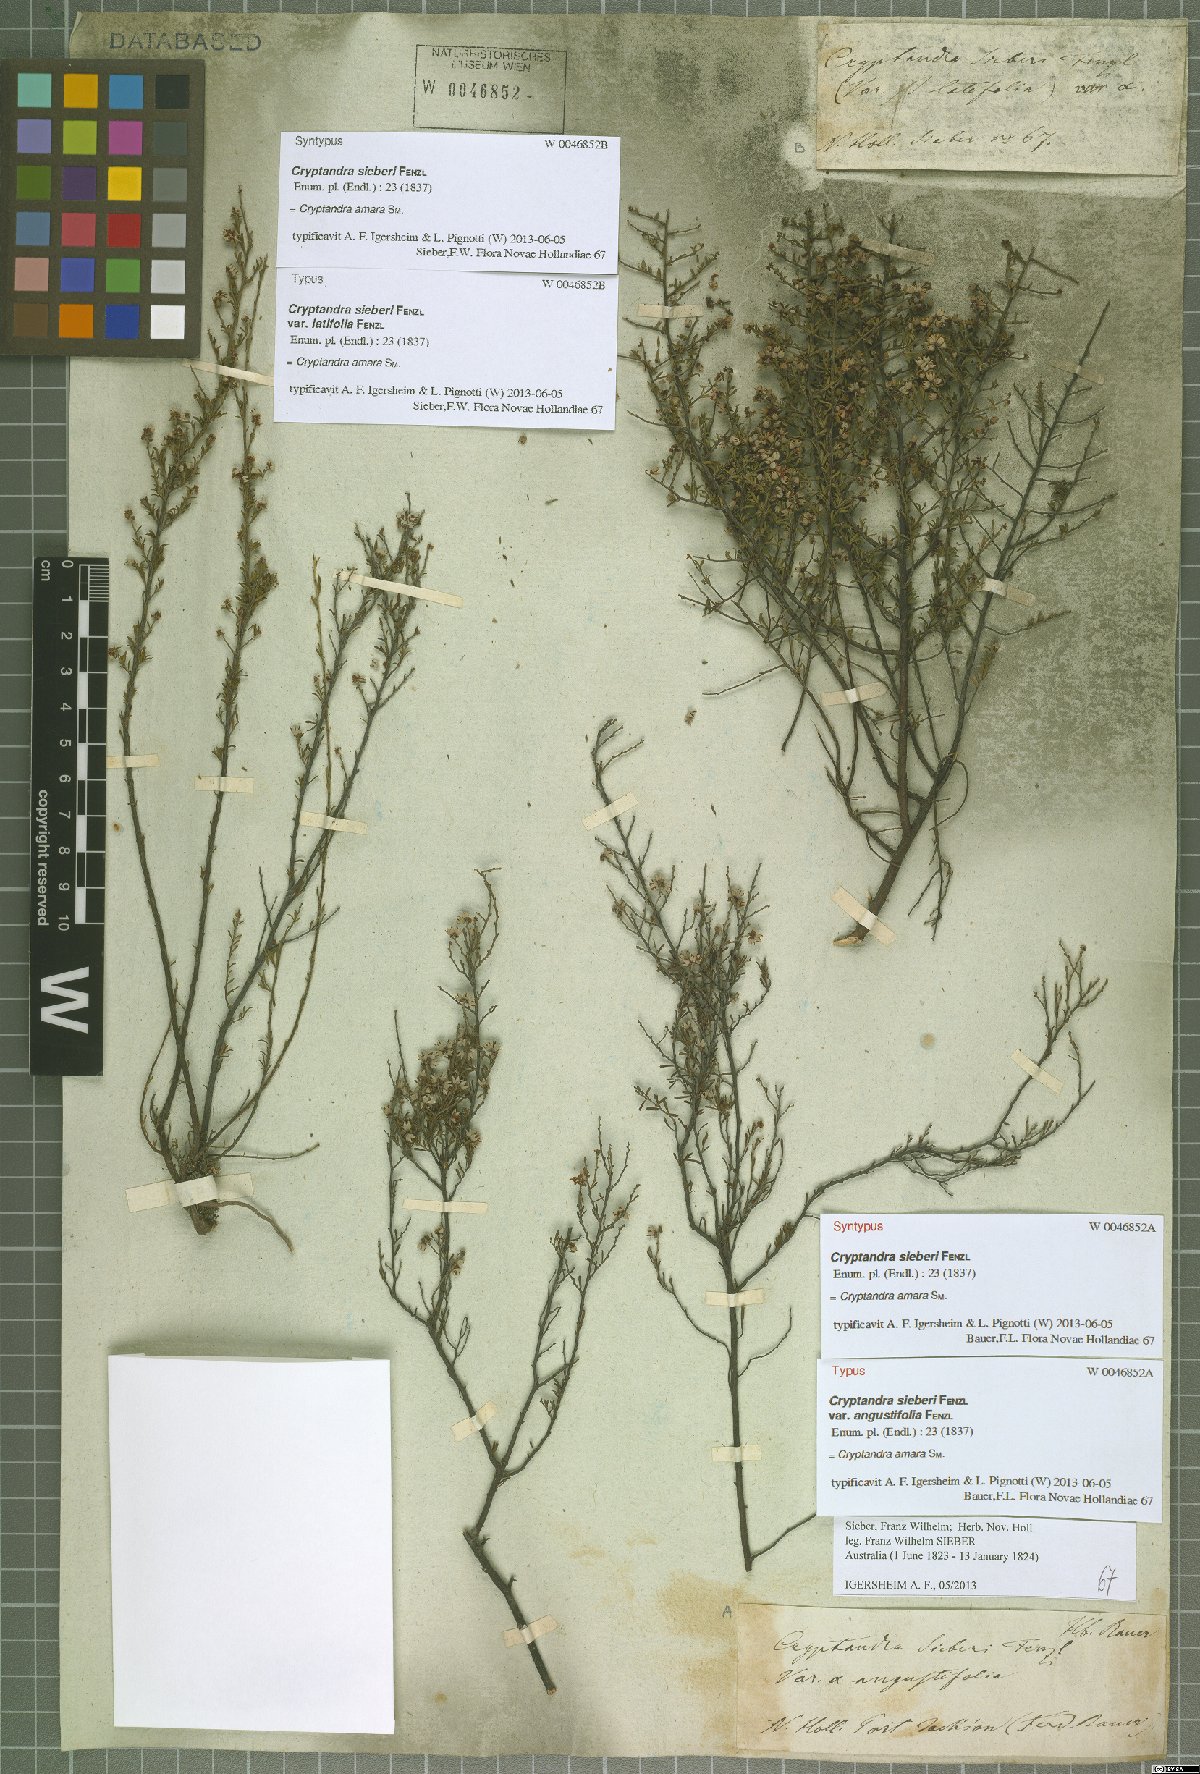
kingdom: Plantae
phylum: Tracheophyta
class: Magnoliopsida
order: Rosales
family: Rhamnaceae
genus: Cryptandra
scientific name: Cryptandra amara
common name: Bitter cryptandra
